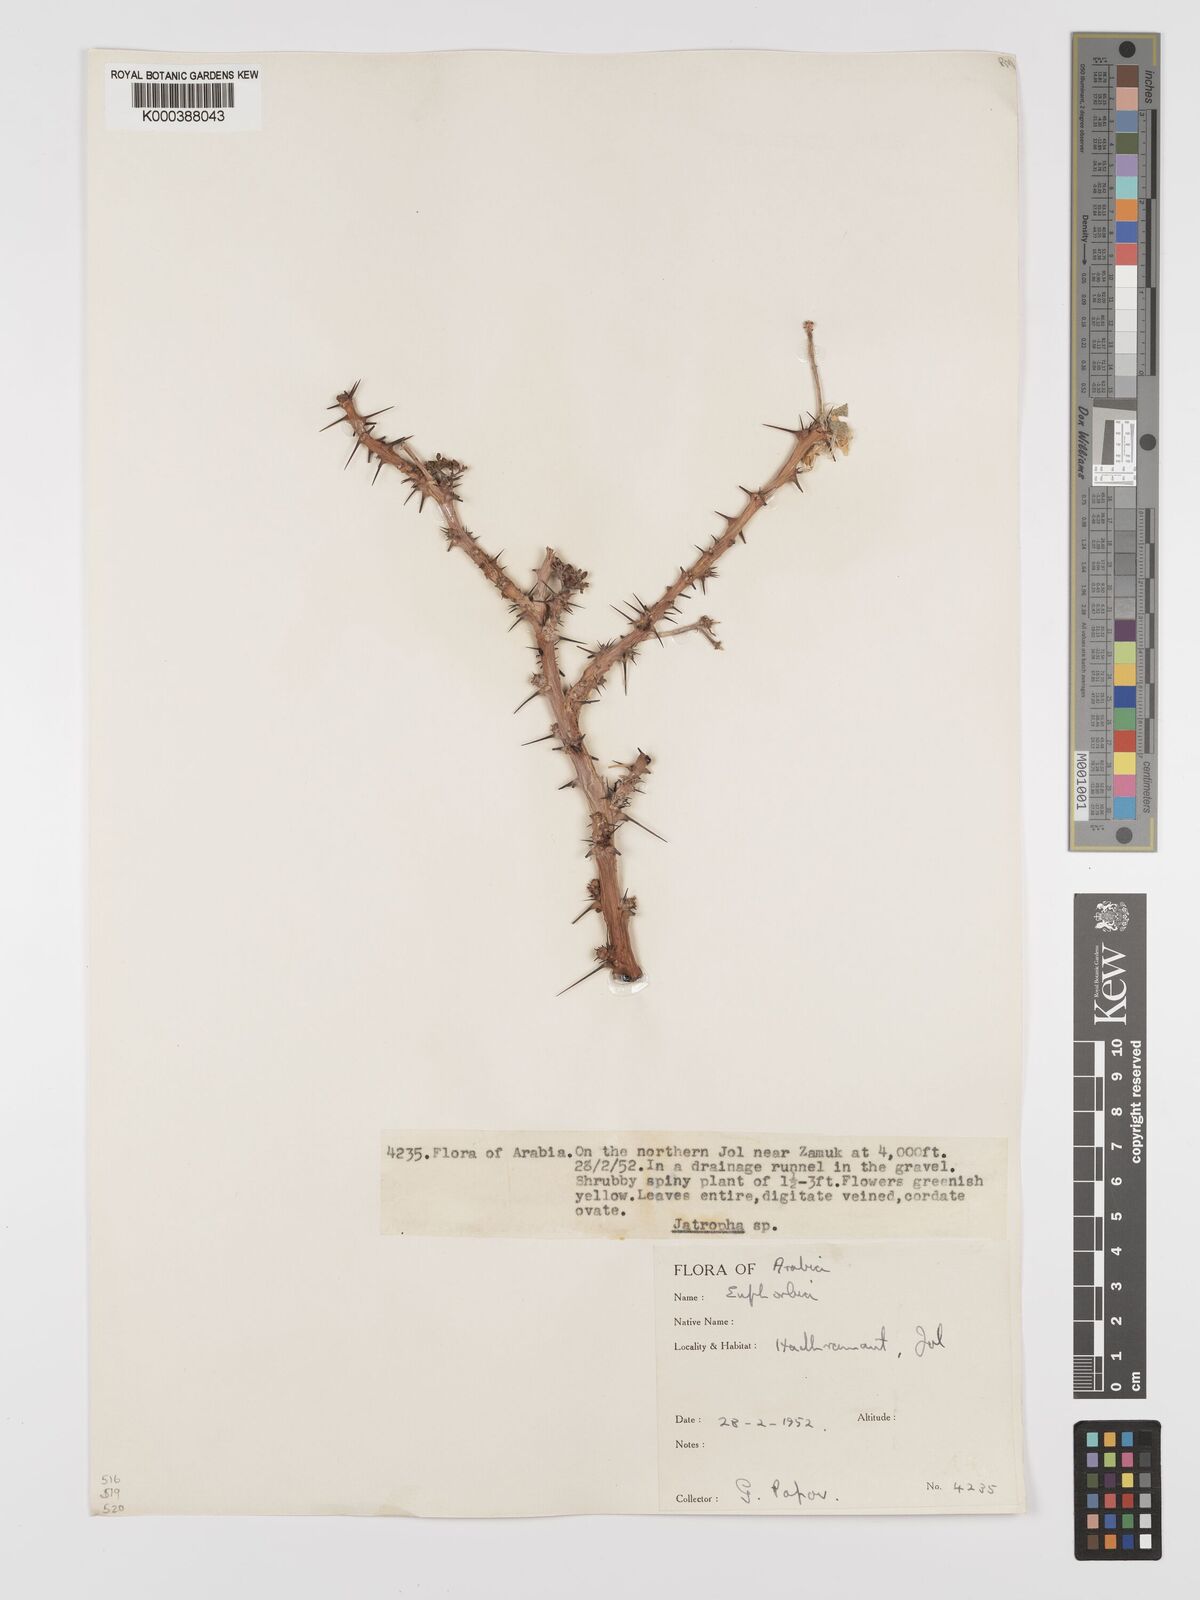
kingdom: Plantae
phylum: Tracheophyta
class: Magnoliopsida
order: Malpighiales
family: Euphorbiaceae
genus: Jatropha
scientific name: Jatropha spinosa
